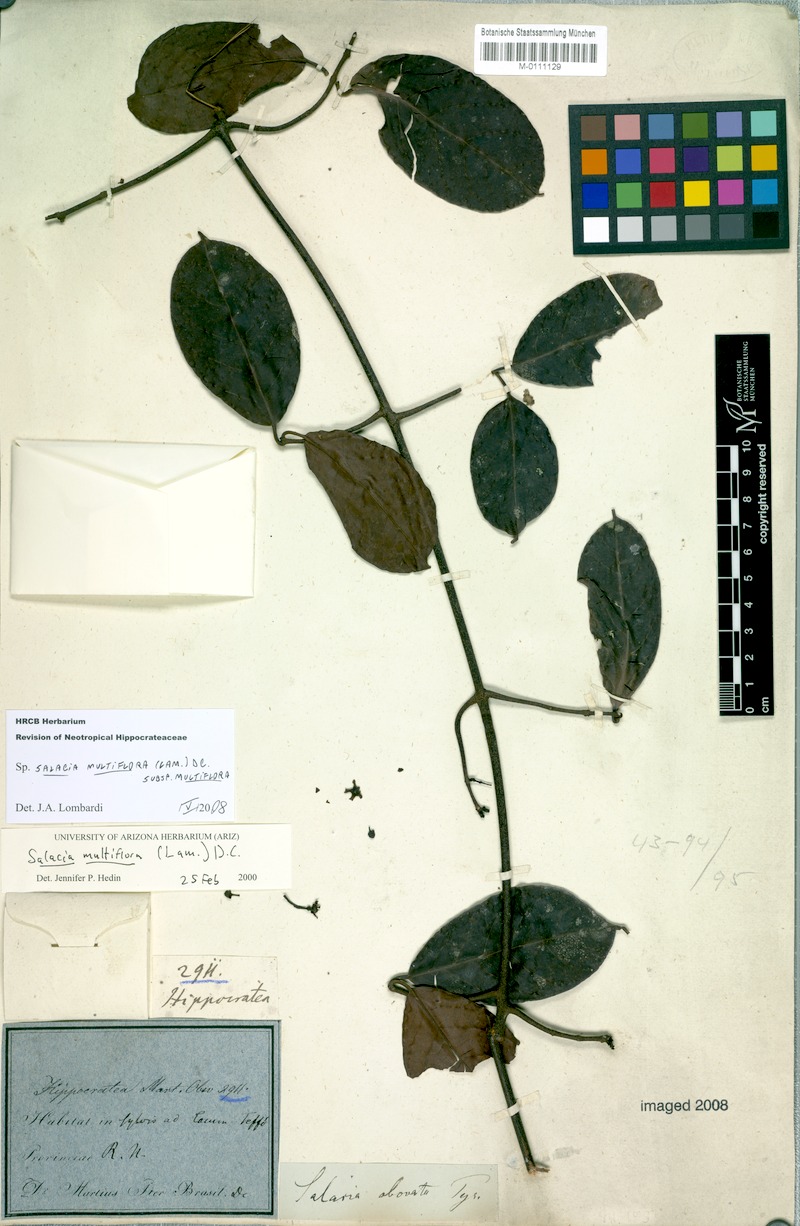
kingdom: Plantae
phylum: Tracheophyta
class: Magnoliopsida
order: Celastrales
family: Celastraceae
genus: Salacia
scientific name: Salacia multiflora
